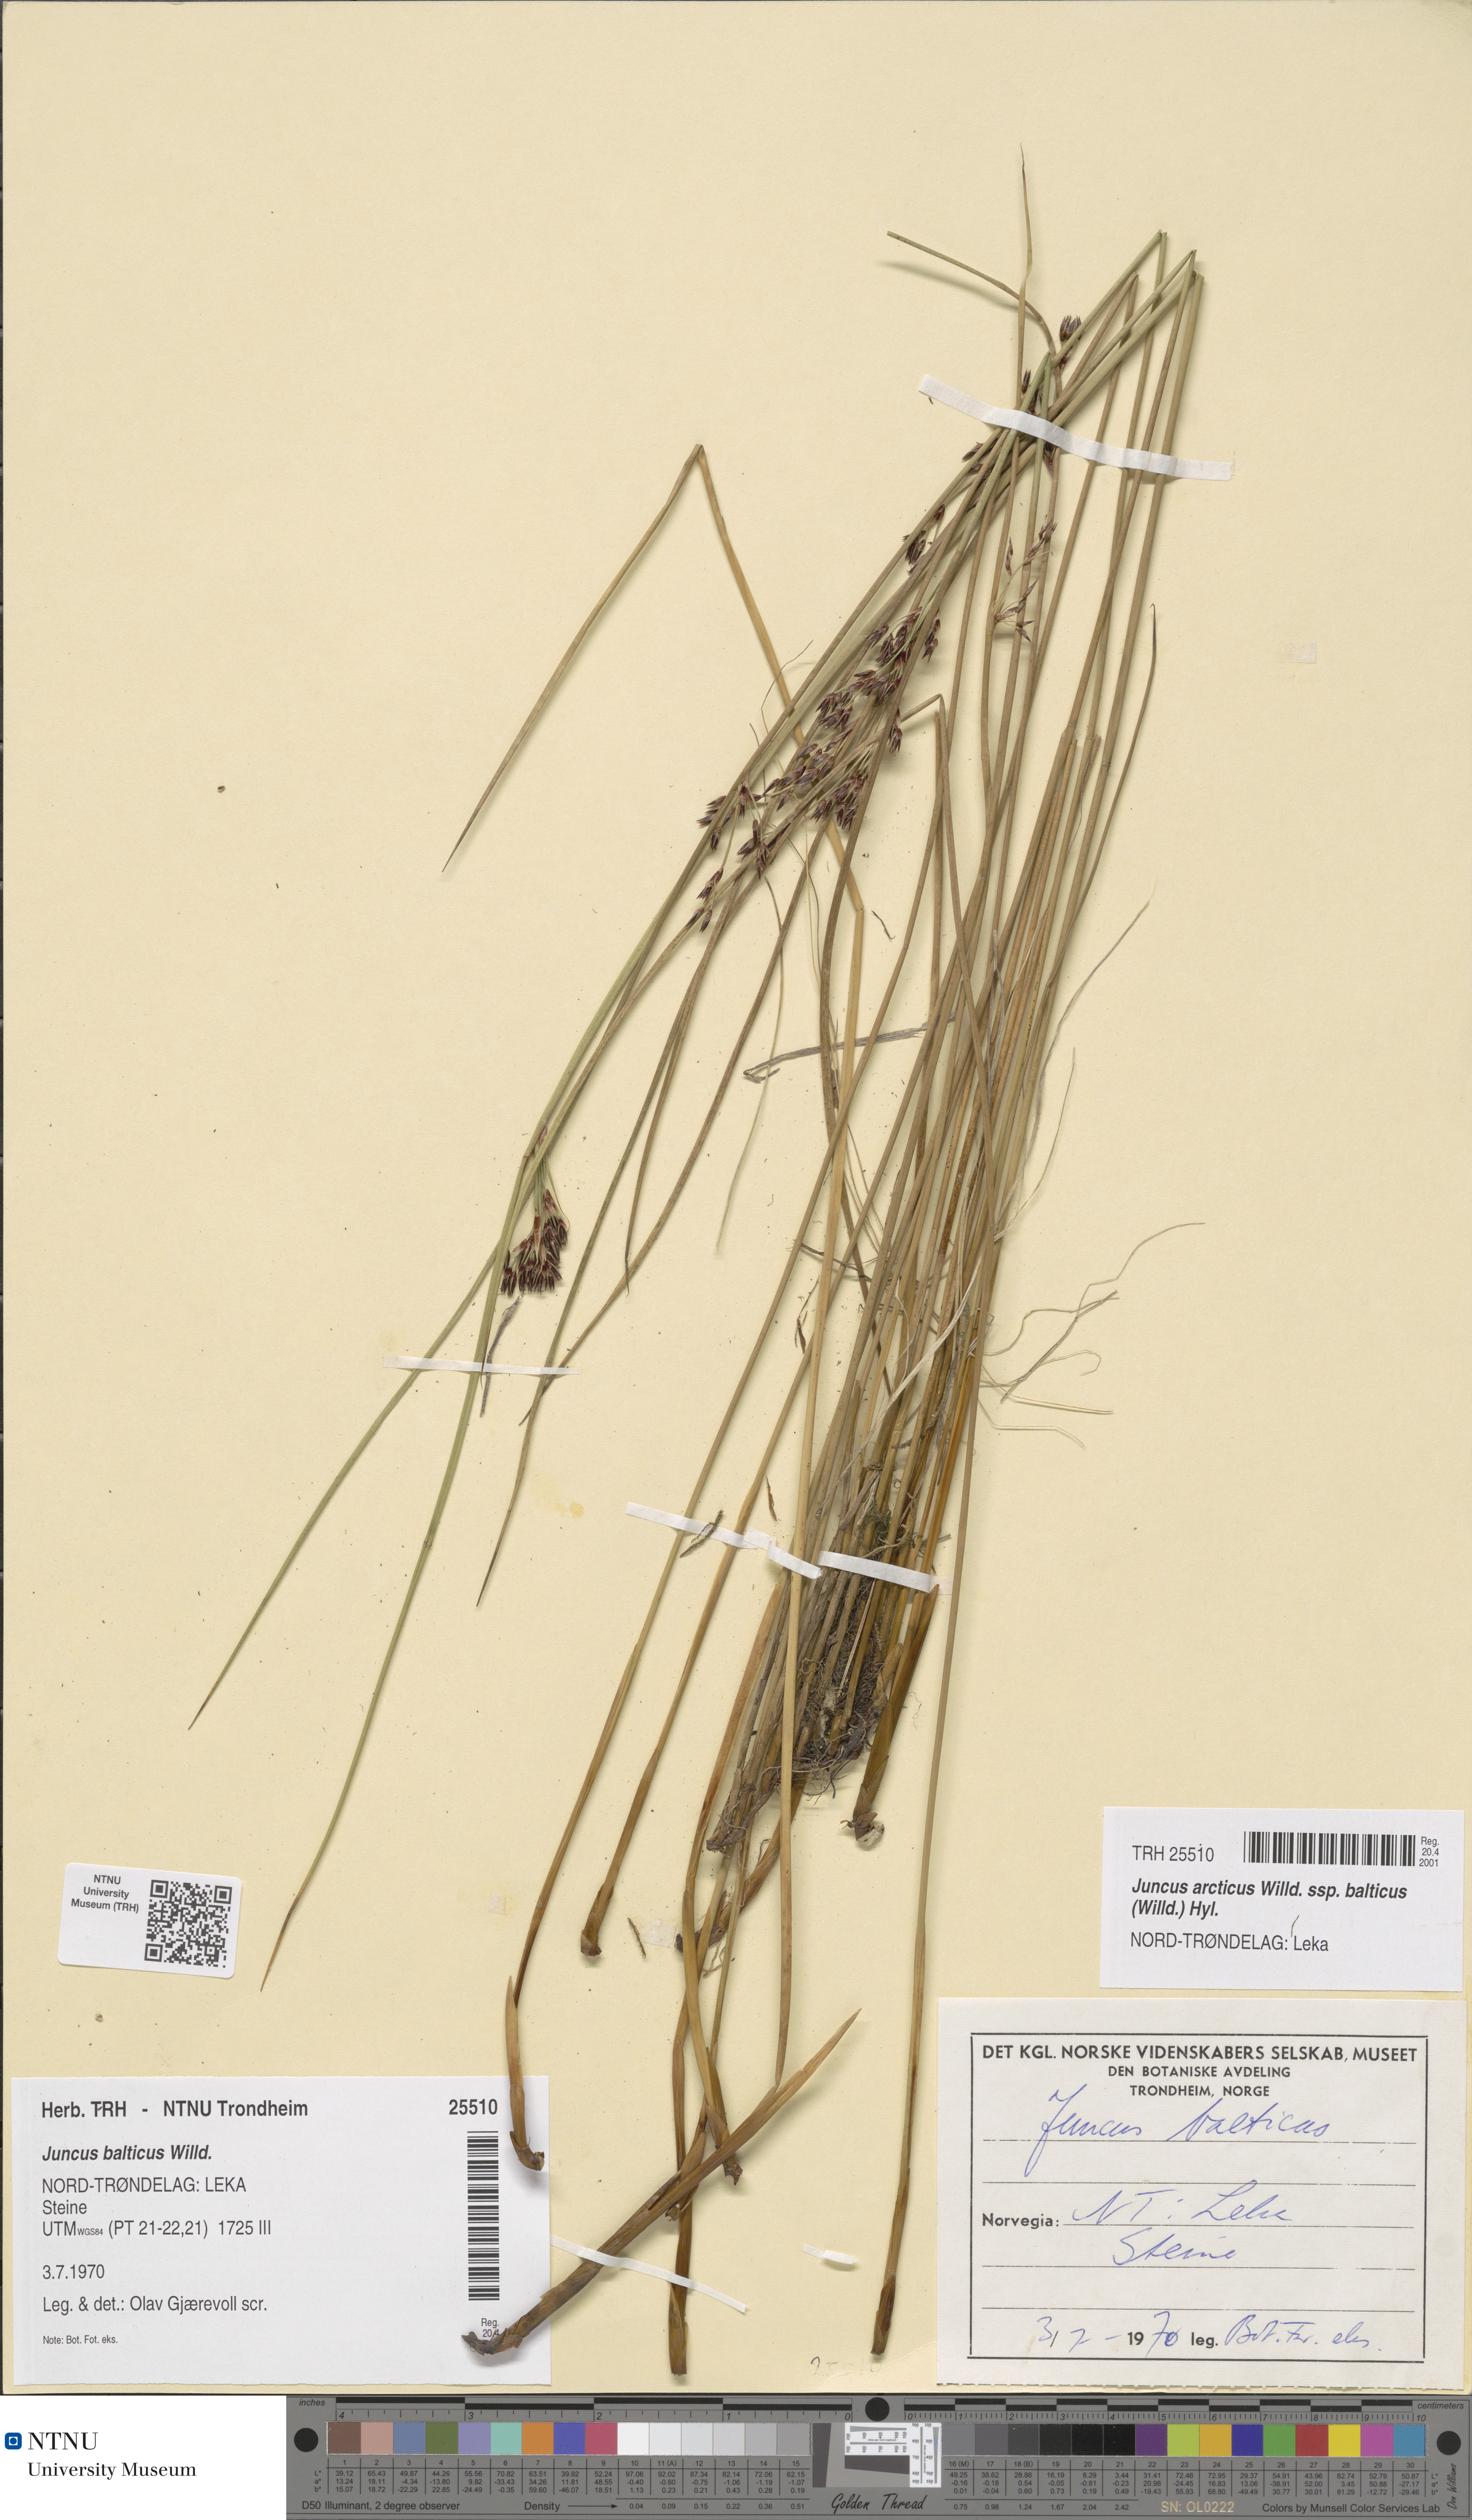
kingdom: Plantae
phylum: Tracheophyta
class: Liliopsida
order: Poales
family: Juncaceae
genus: Juncus
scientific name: Juncus balticus
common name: Baltic rush
